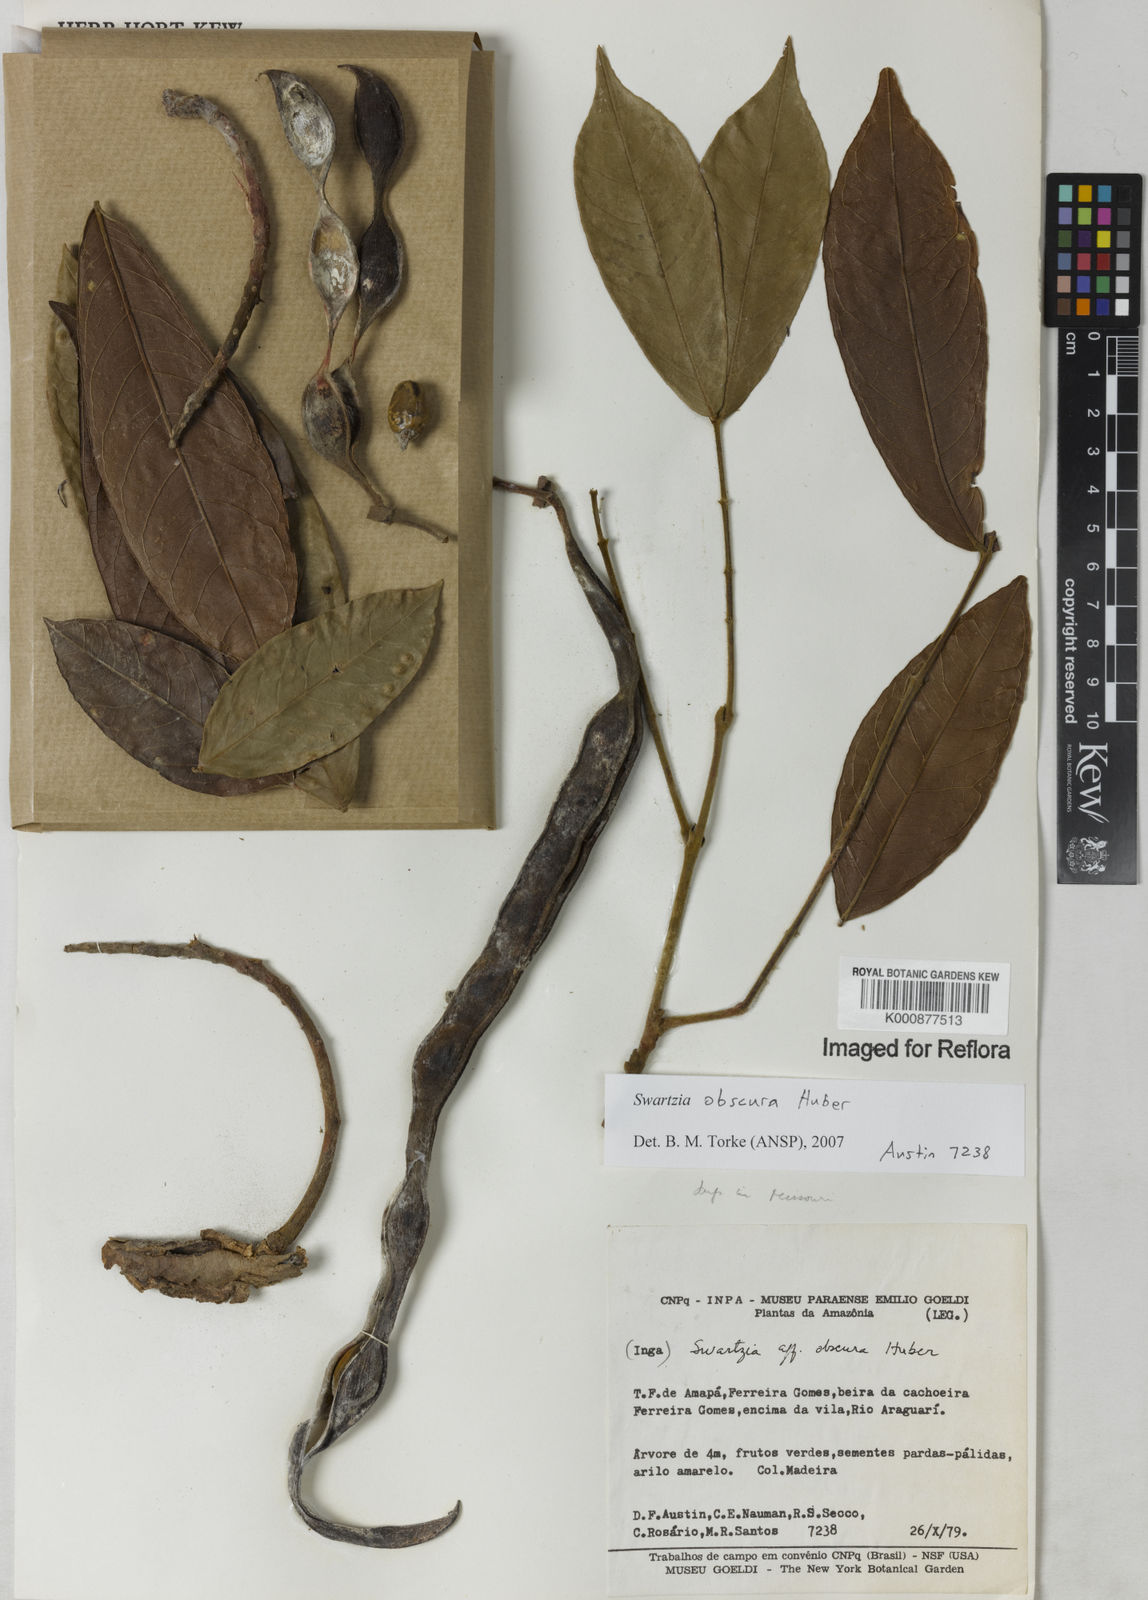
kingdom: Plantae
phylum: Tracheophyta
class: Magnoliopsida
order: Fabales
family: Fabaceae
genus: Swartzia
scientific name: Swartzia obscura
